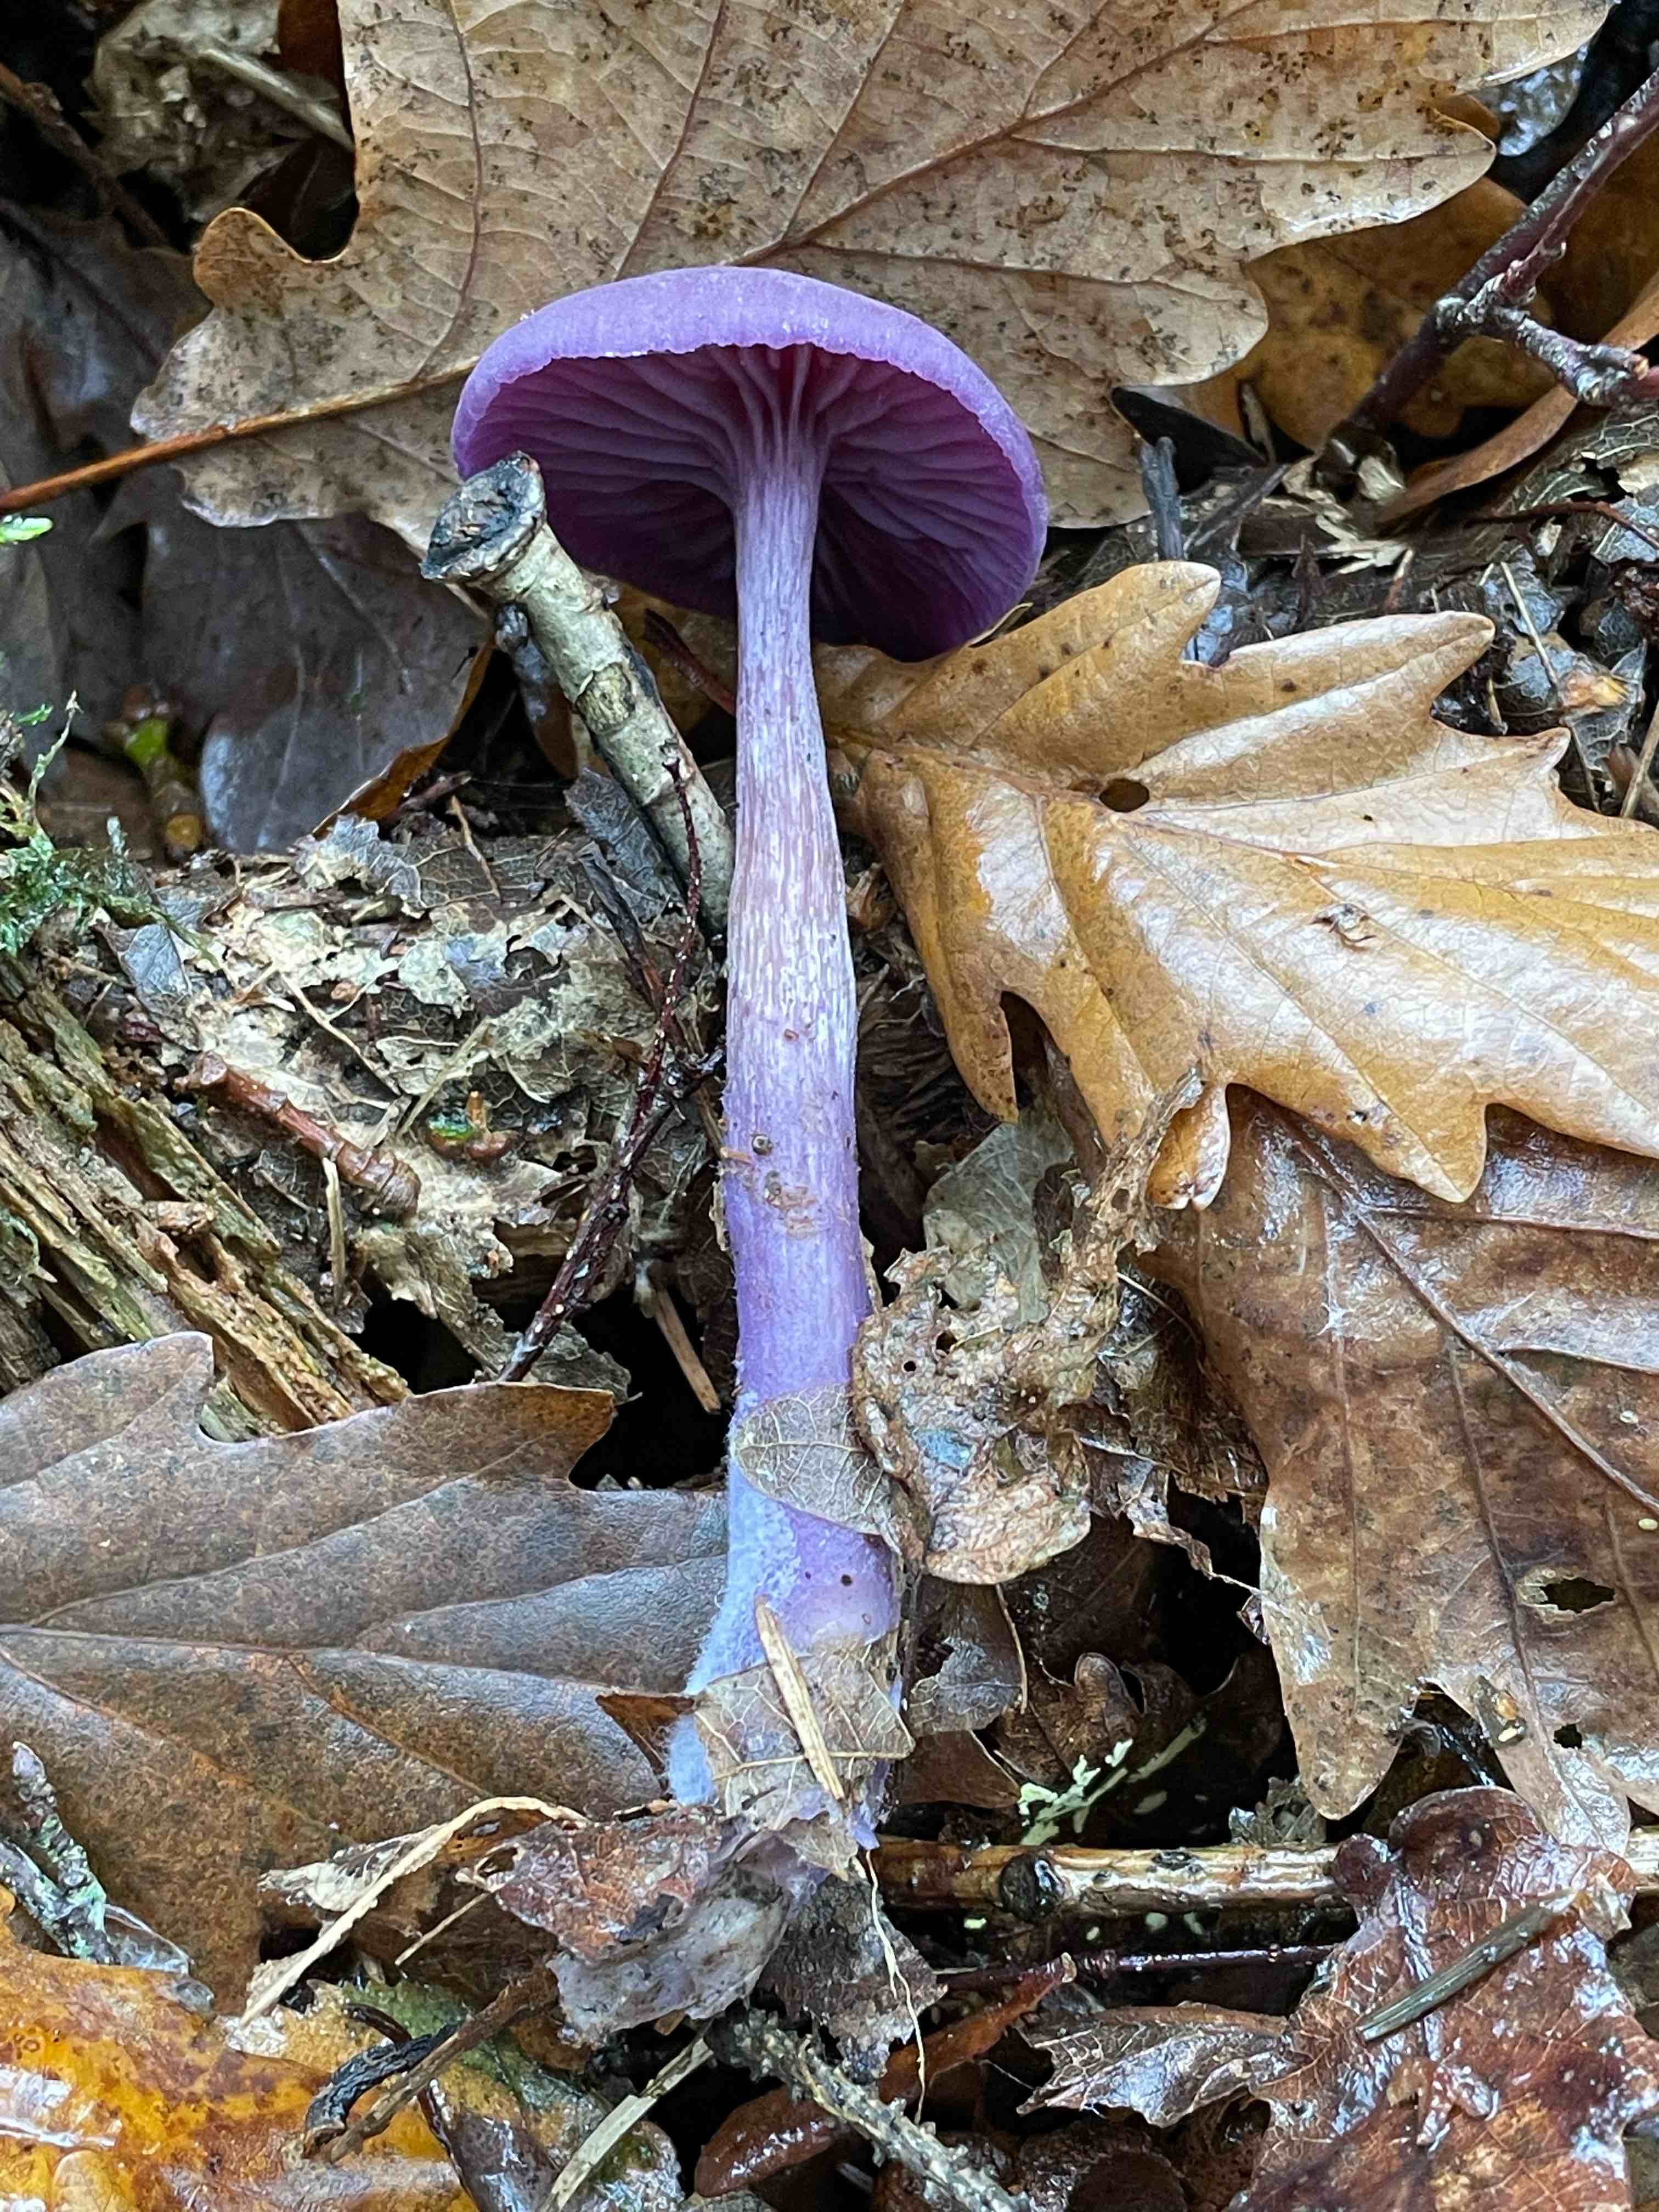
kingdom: Fungi
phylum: Basidiomycota
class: Agaricomycetes
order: Agaricales
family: Hydnangiaceae
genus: Laccaria
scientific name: Laccaria amethystina
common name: violet ametysthat
